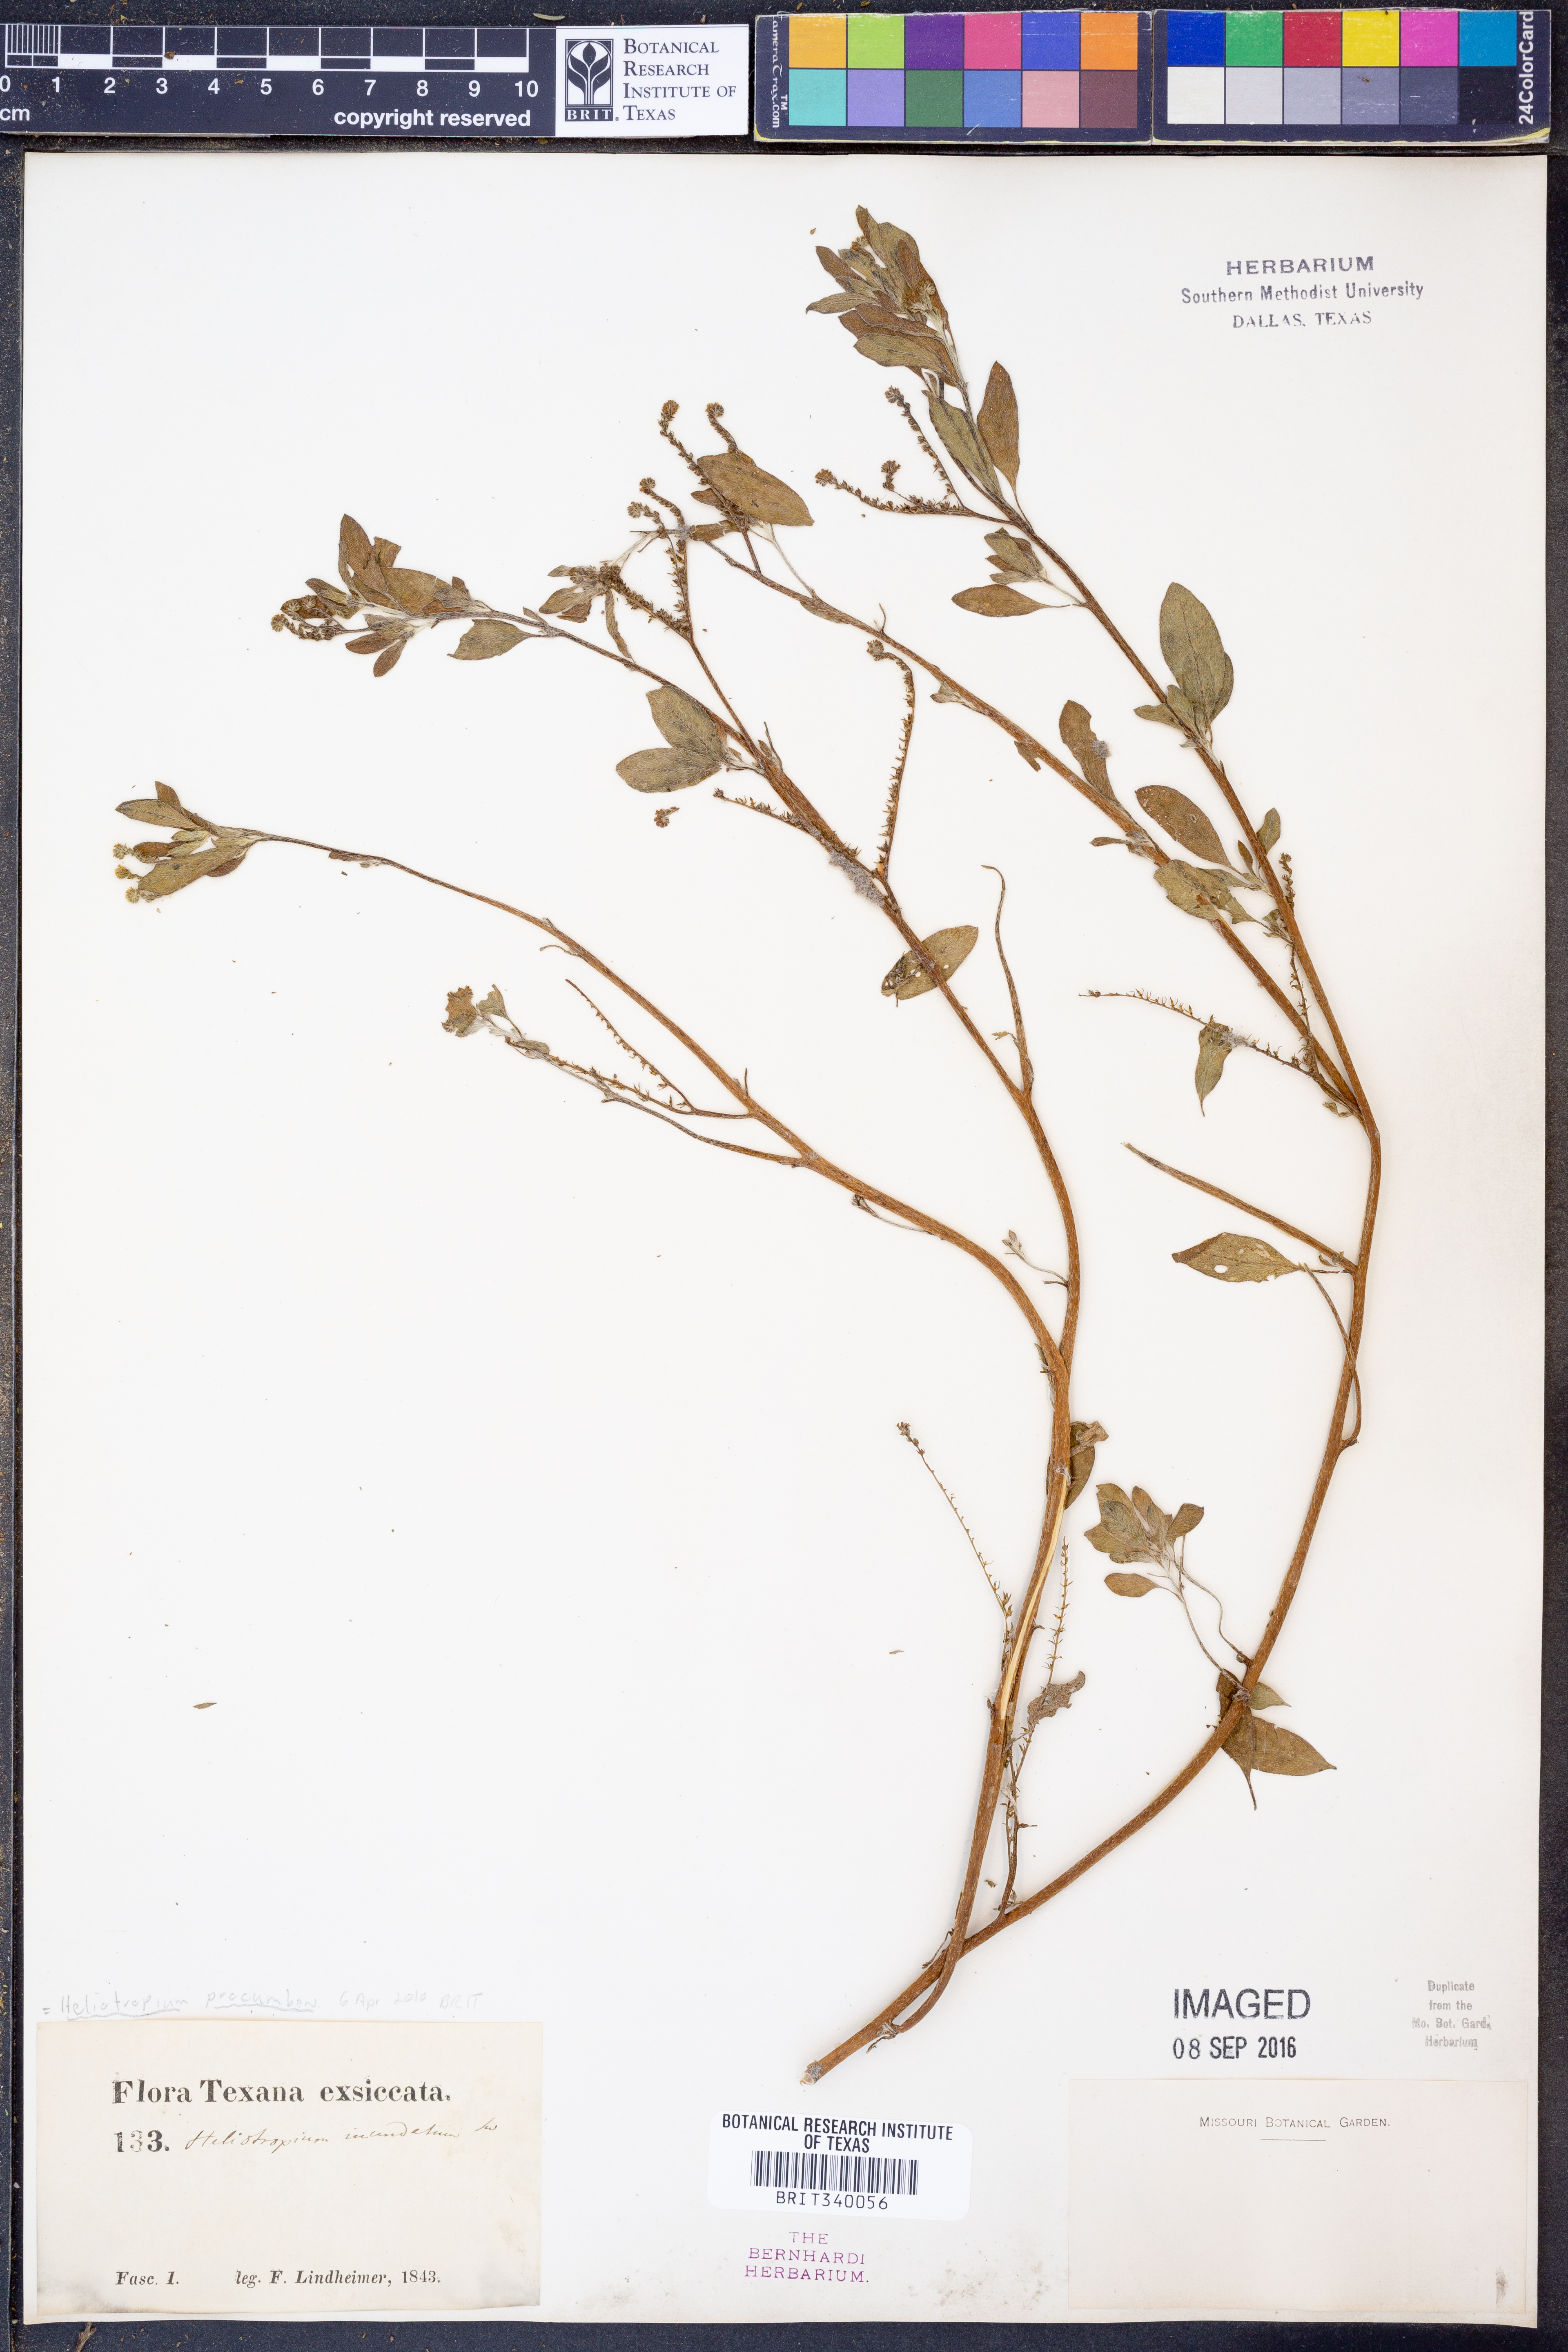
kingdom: Plantae
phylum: Tracheophyta
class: Magnoliopsida
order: Boraginales
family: Heliotropiaceae
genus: Euploca
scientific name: Euploca procumbens
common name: Fourspike heliotrope
